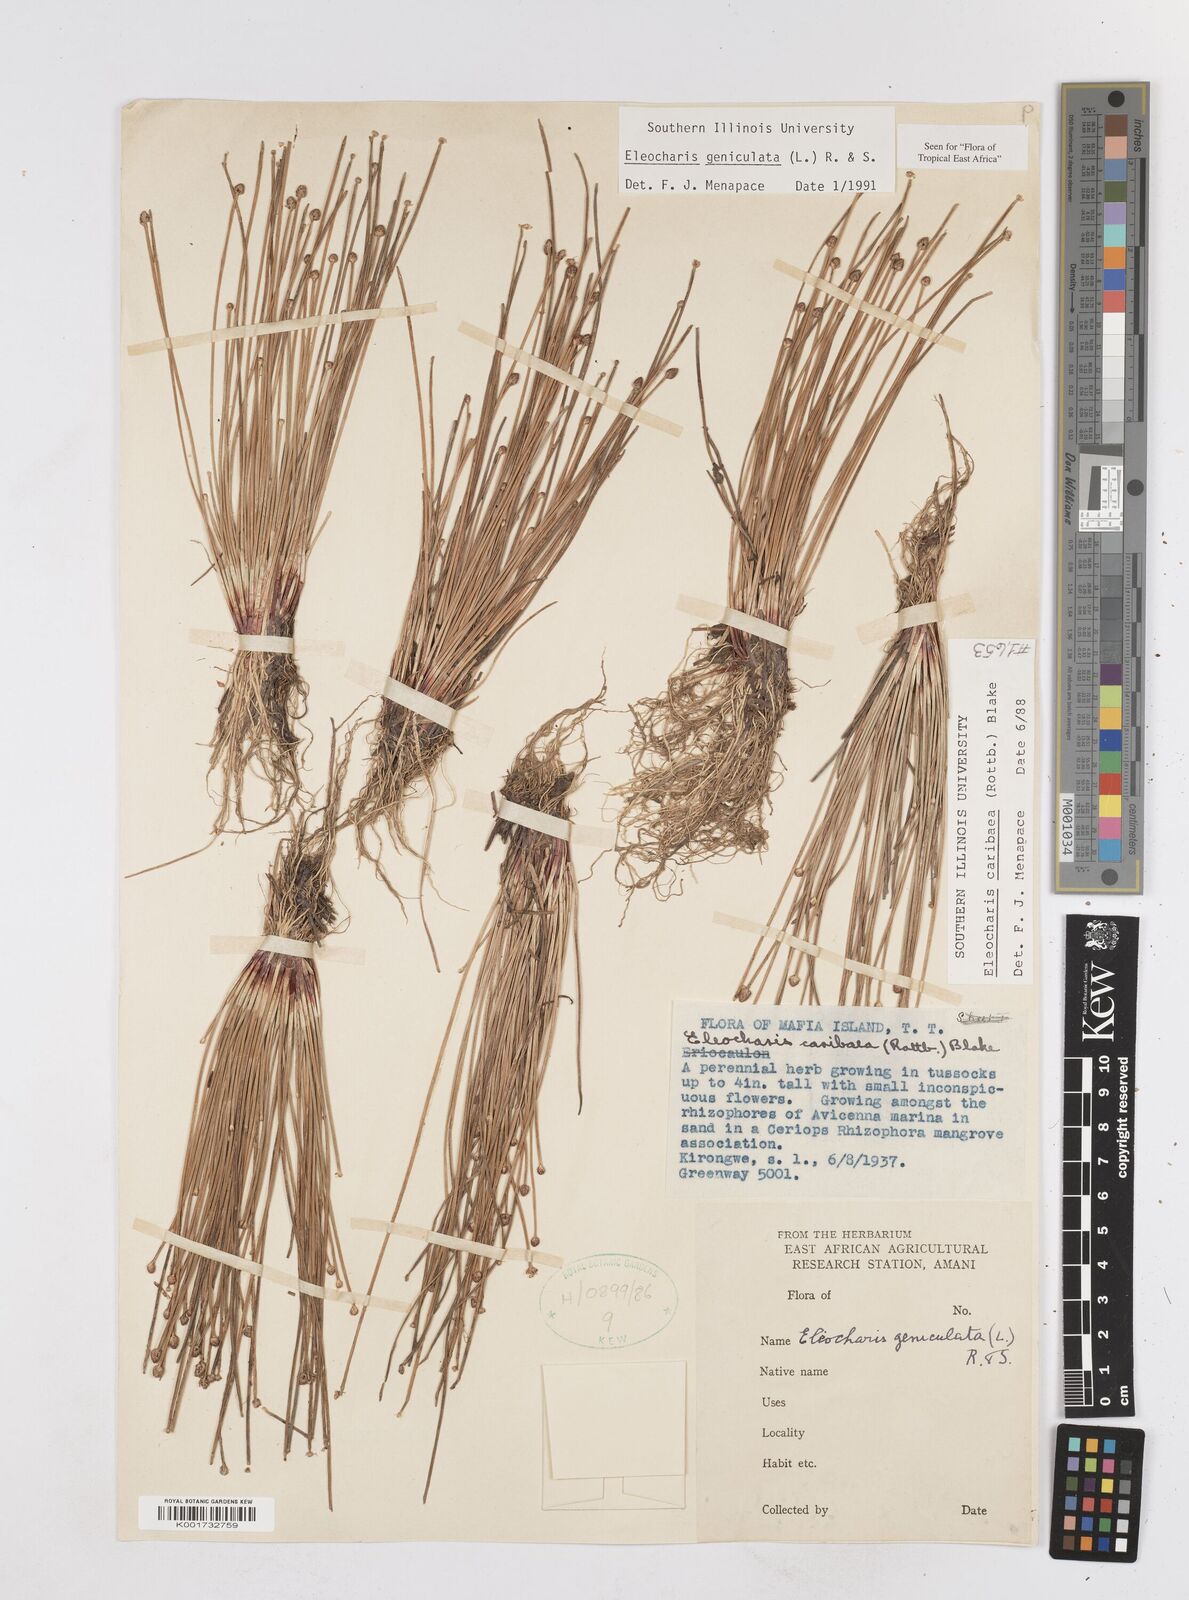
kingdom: Plantae
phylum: Tracheophyta
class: Liliopsida
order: Poales
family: Cyperaceae
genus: Eleocharis
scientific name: Eleocharis geniculata
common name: Canada spikesedge
